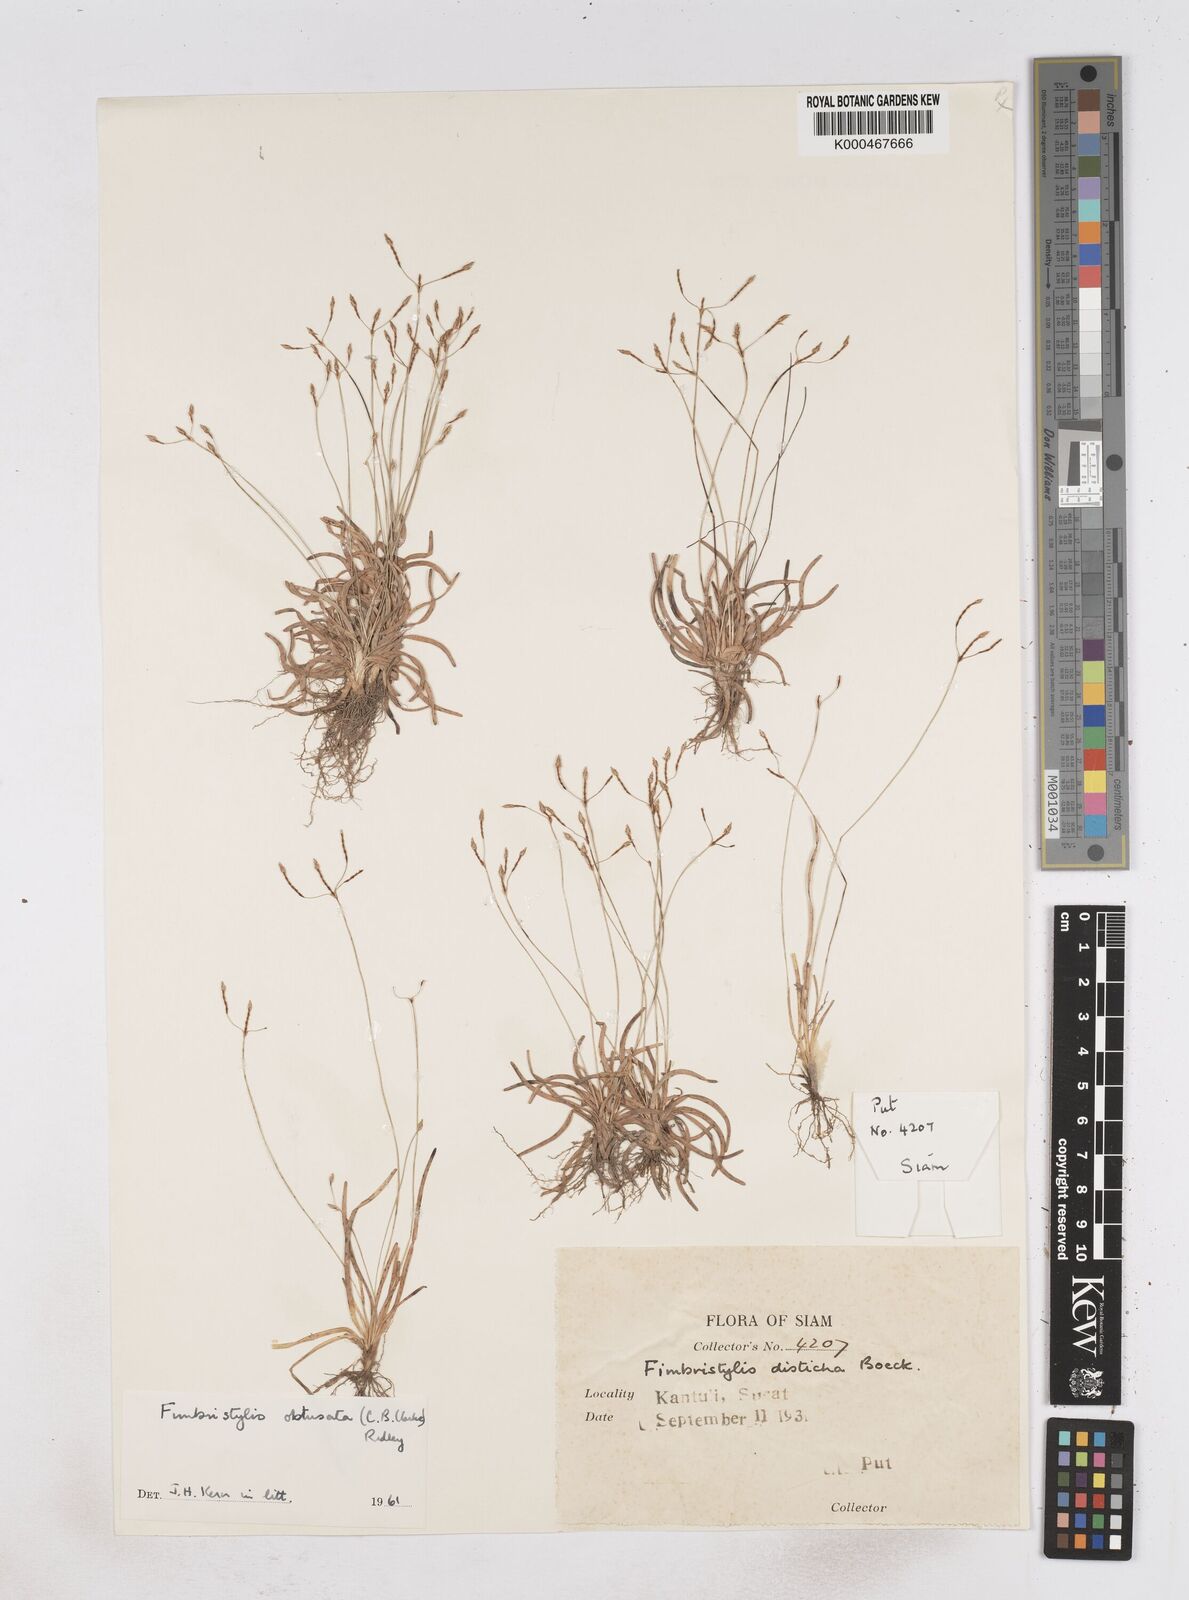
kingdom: Plantae
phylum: Tracheophyta
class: Liliopsida
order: Poales
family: Cyperaceae
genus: Fimbristylis
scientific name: Fimbristylis obtusata
